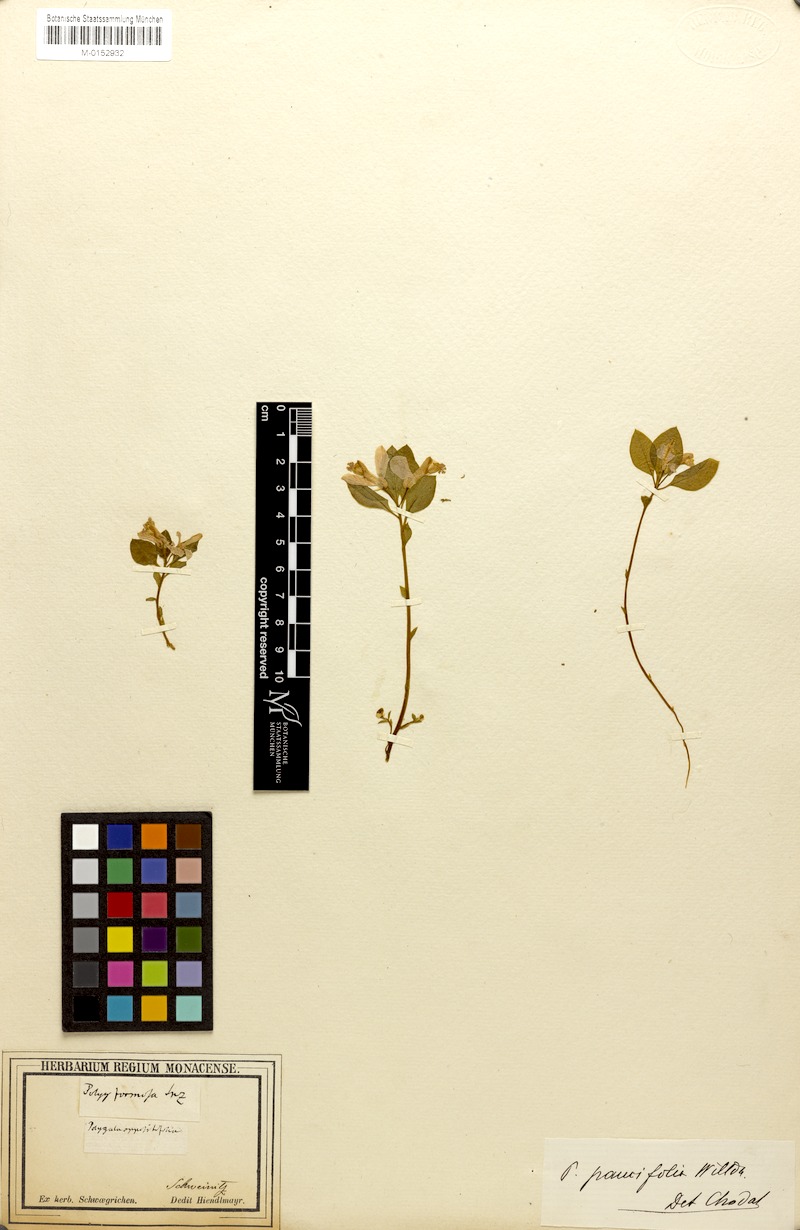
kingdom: Plantae
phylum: Tracheophyta
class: Magnoliopsida
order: Fabales
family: Polygalaceae
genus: Polygaloides
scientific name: Polygaloides paucifolia
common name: Bird-on-the-wing
